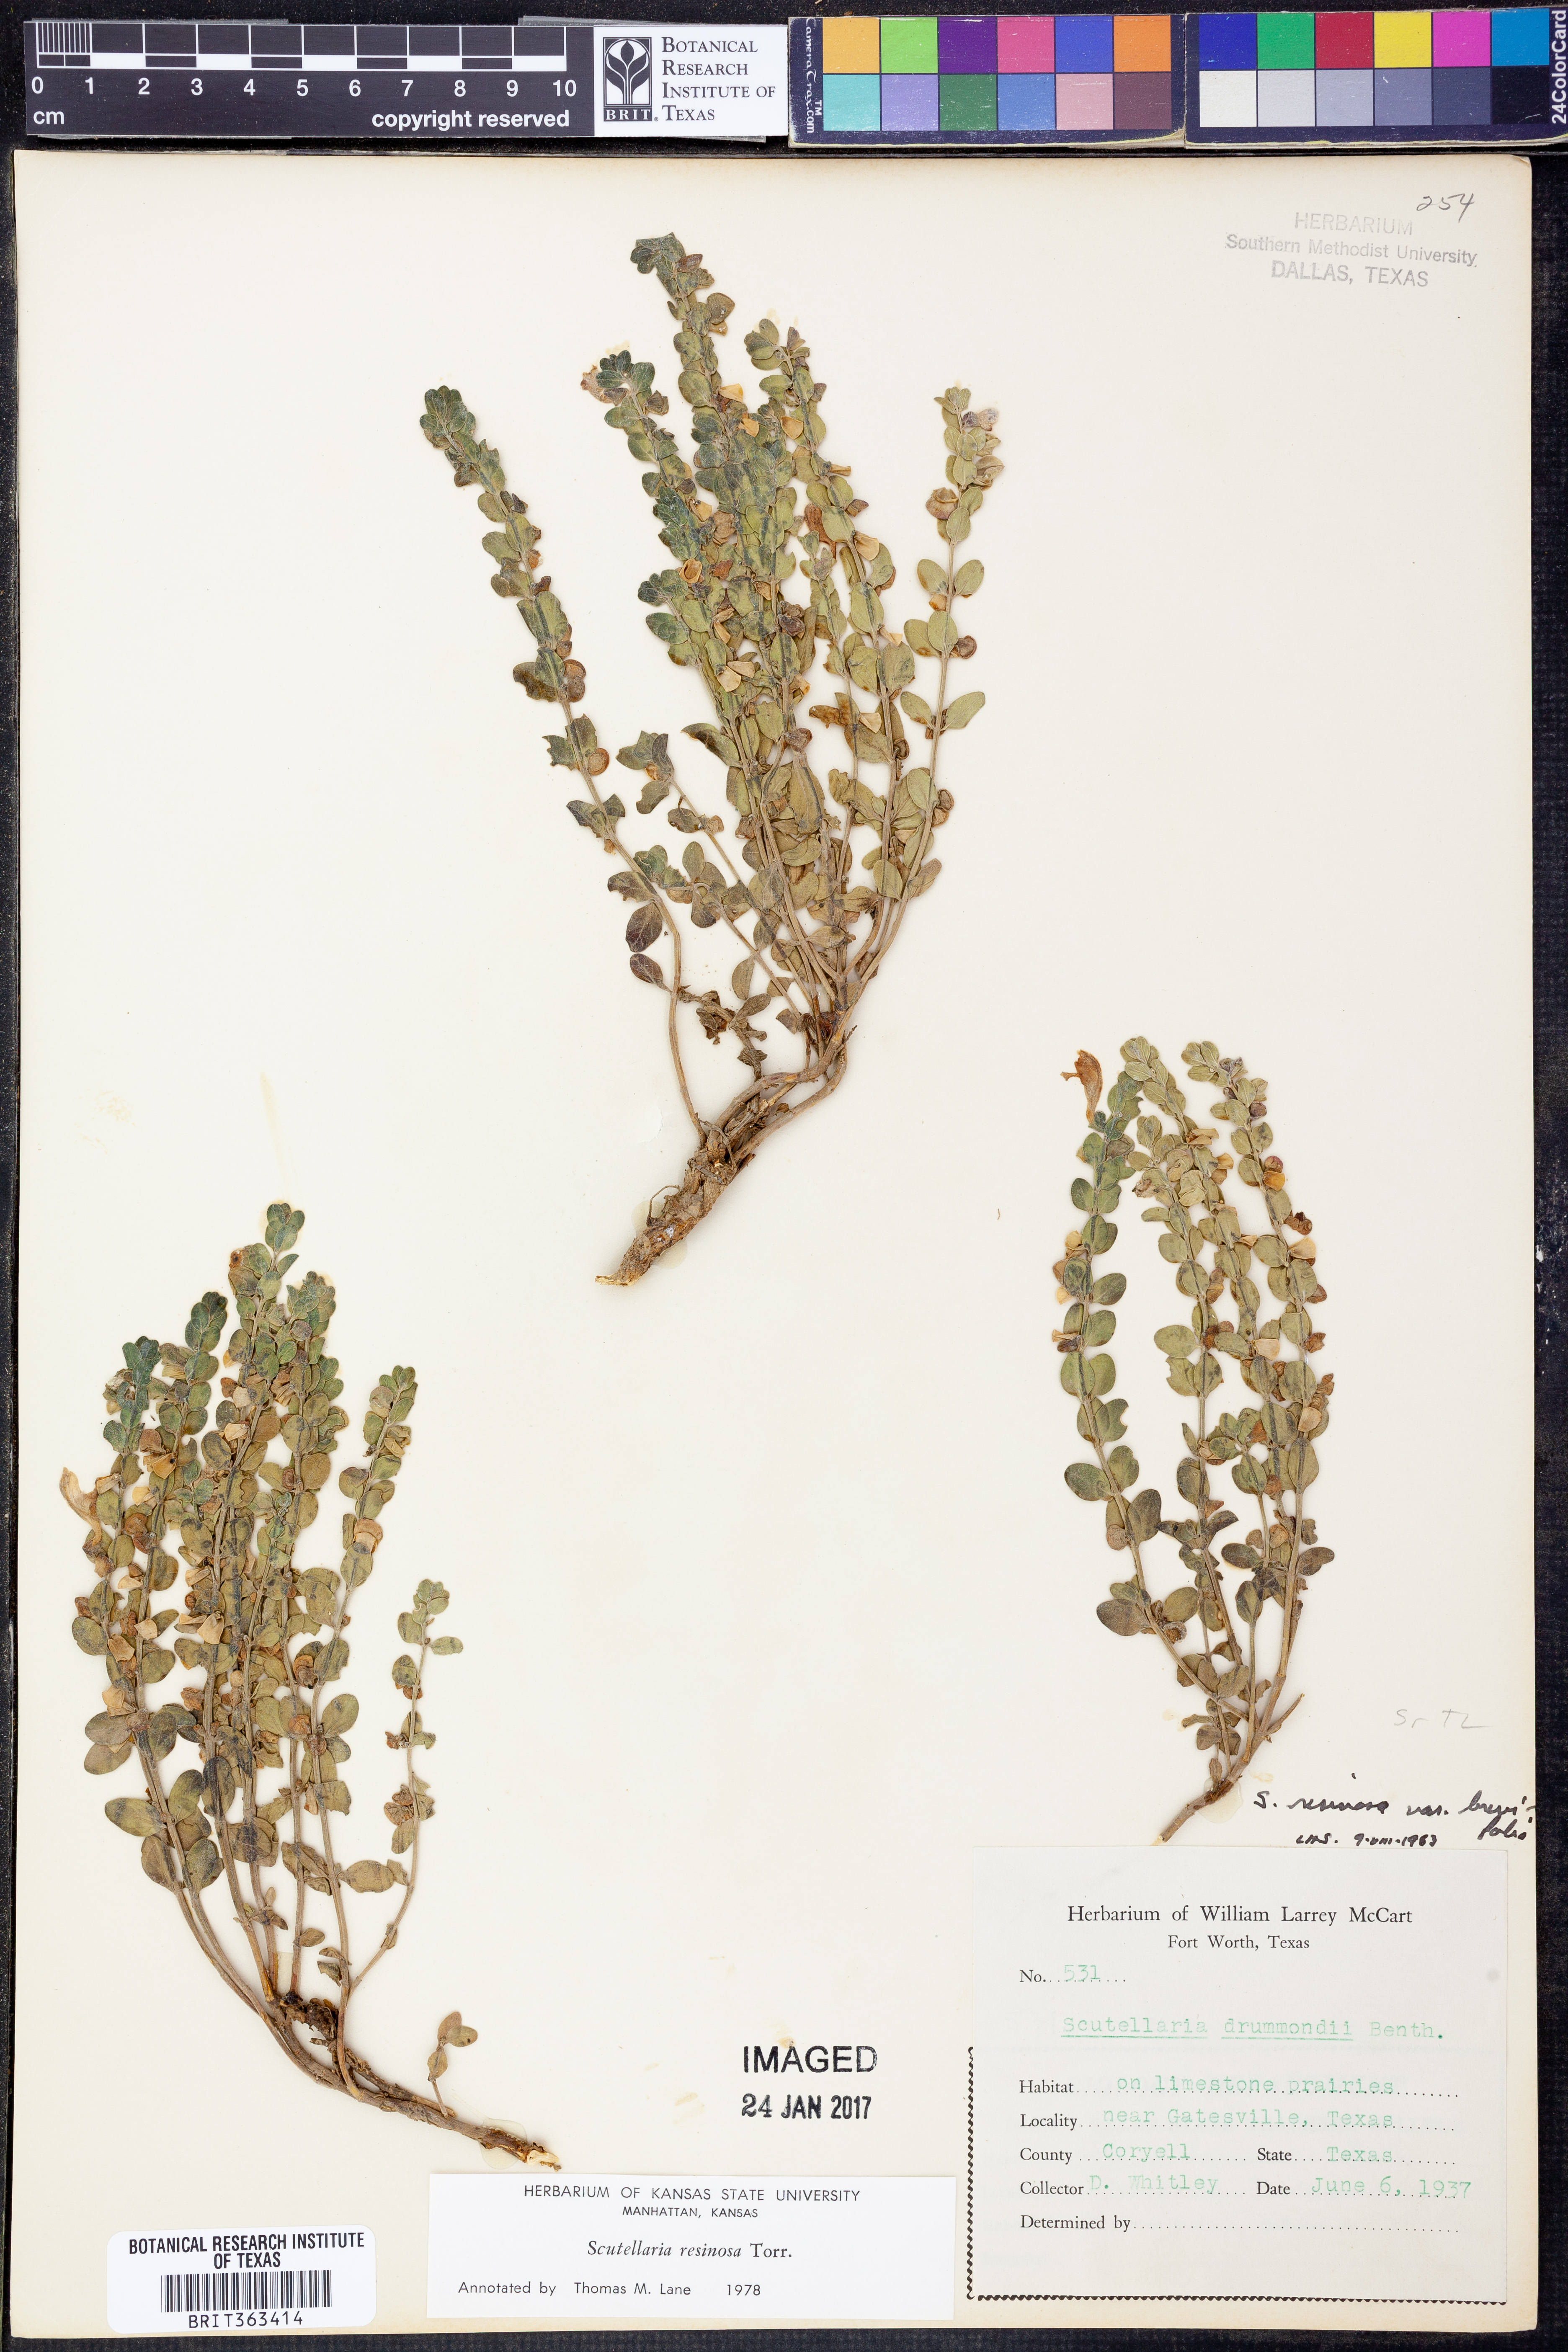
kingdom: Plantae
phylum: Tracheophyta
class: Magnoliopsida
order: Lamiales
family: Lamiaceae
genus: Scutellaria
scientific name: Scutellaria resinosa
